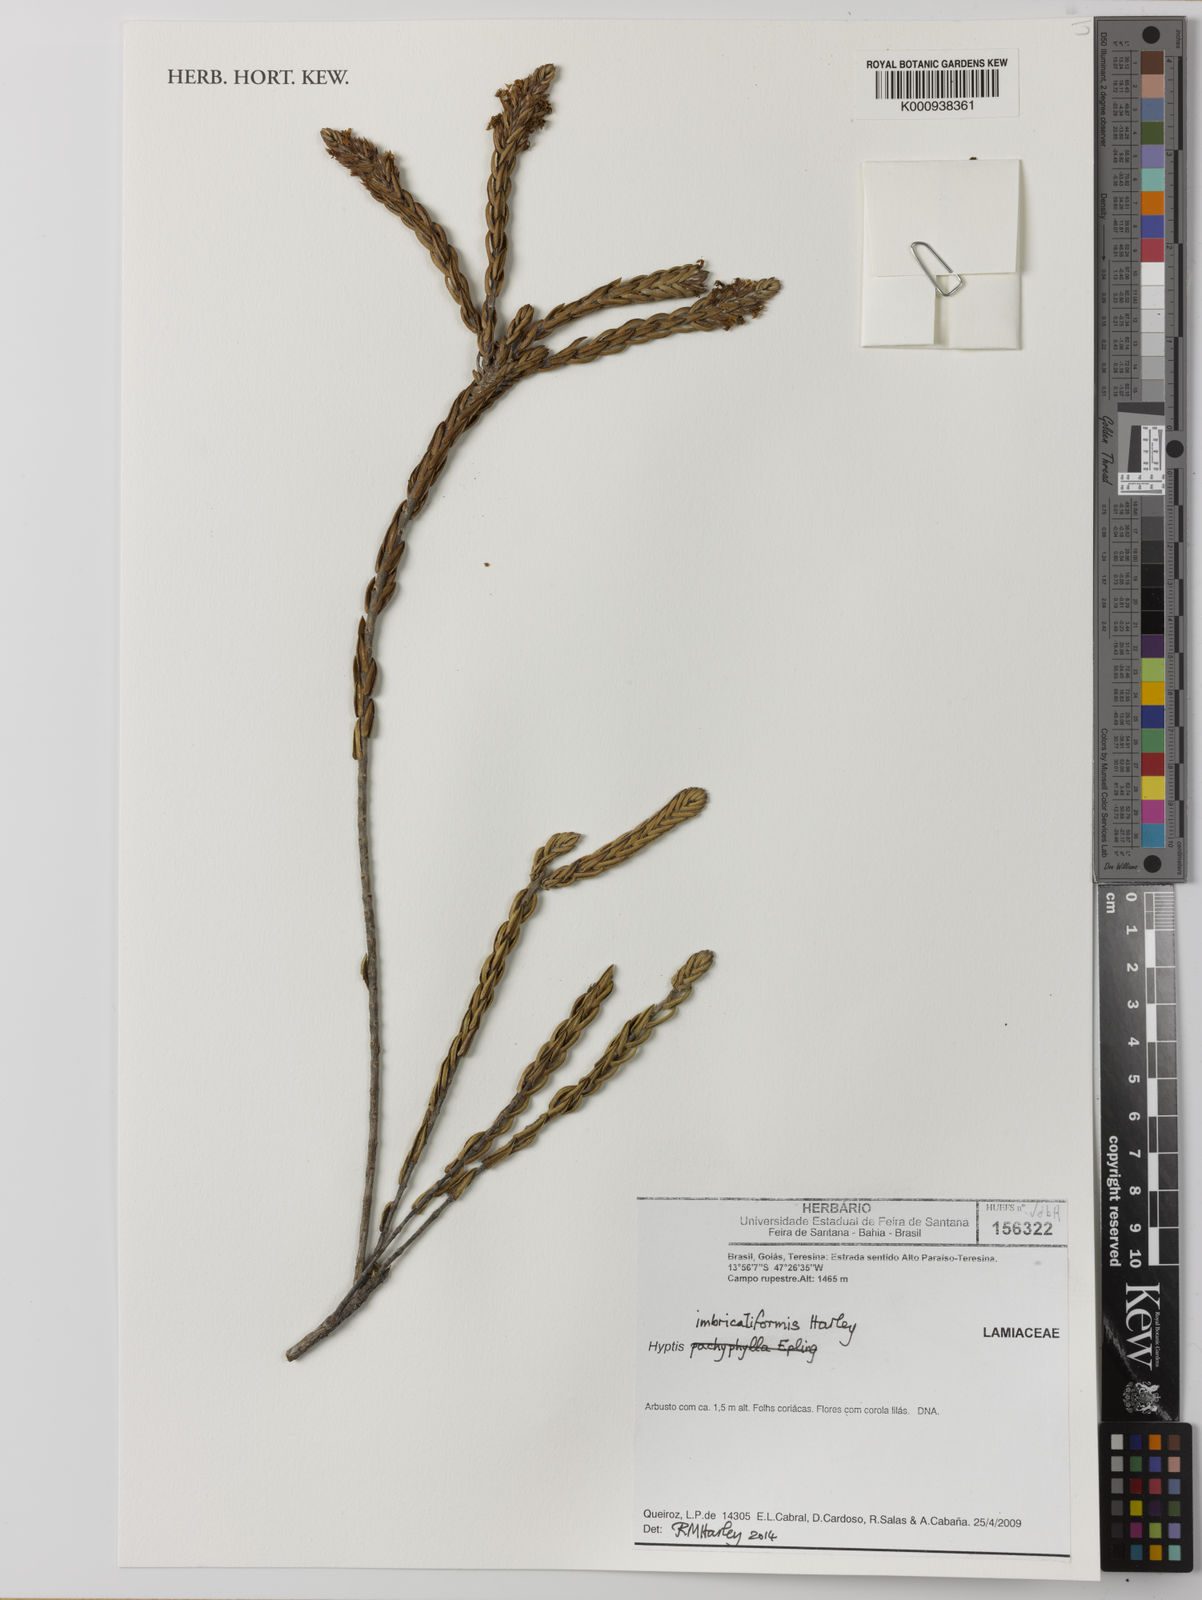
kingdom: Plantae
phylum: Tracheophyta
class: Magnoliopsida
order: Lamiales
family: Lamiaceae
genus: Hyptis
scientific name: Hyptis imbricatiformis
